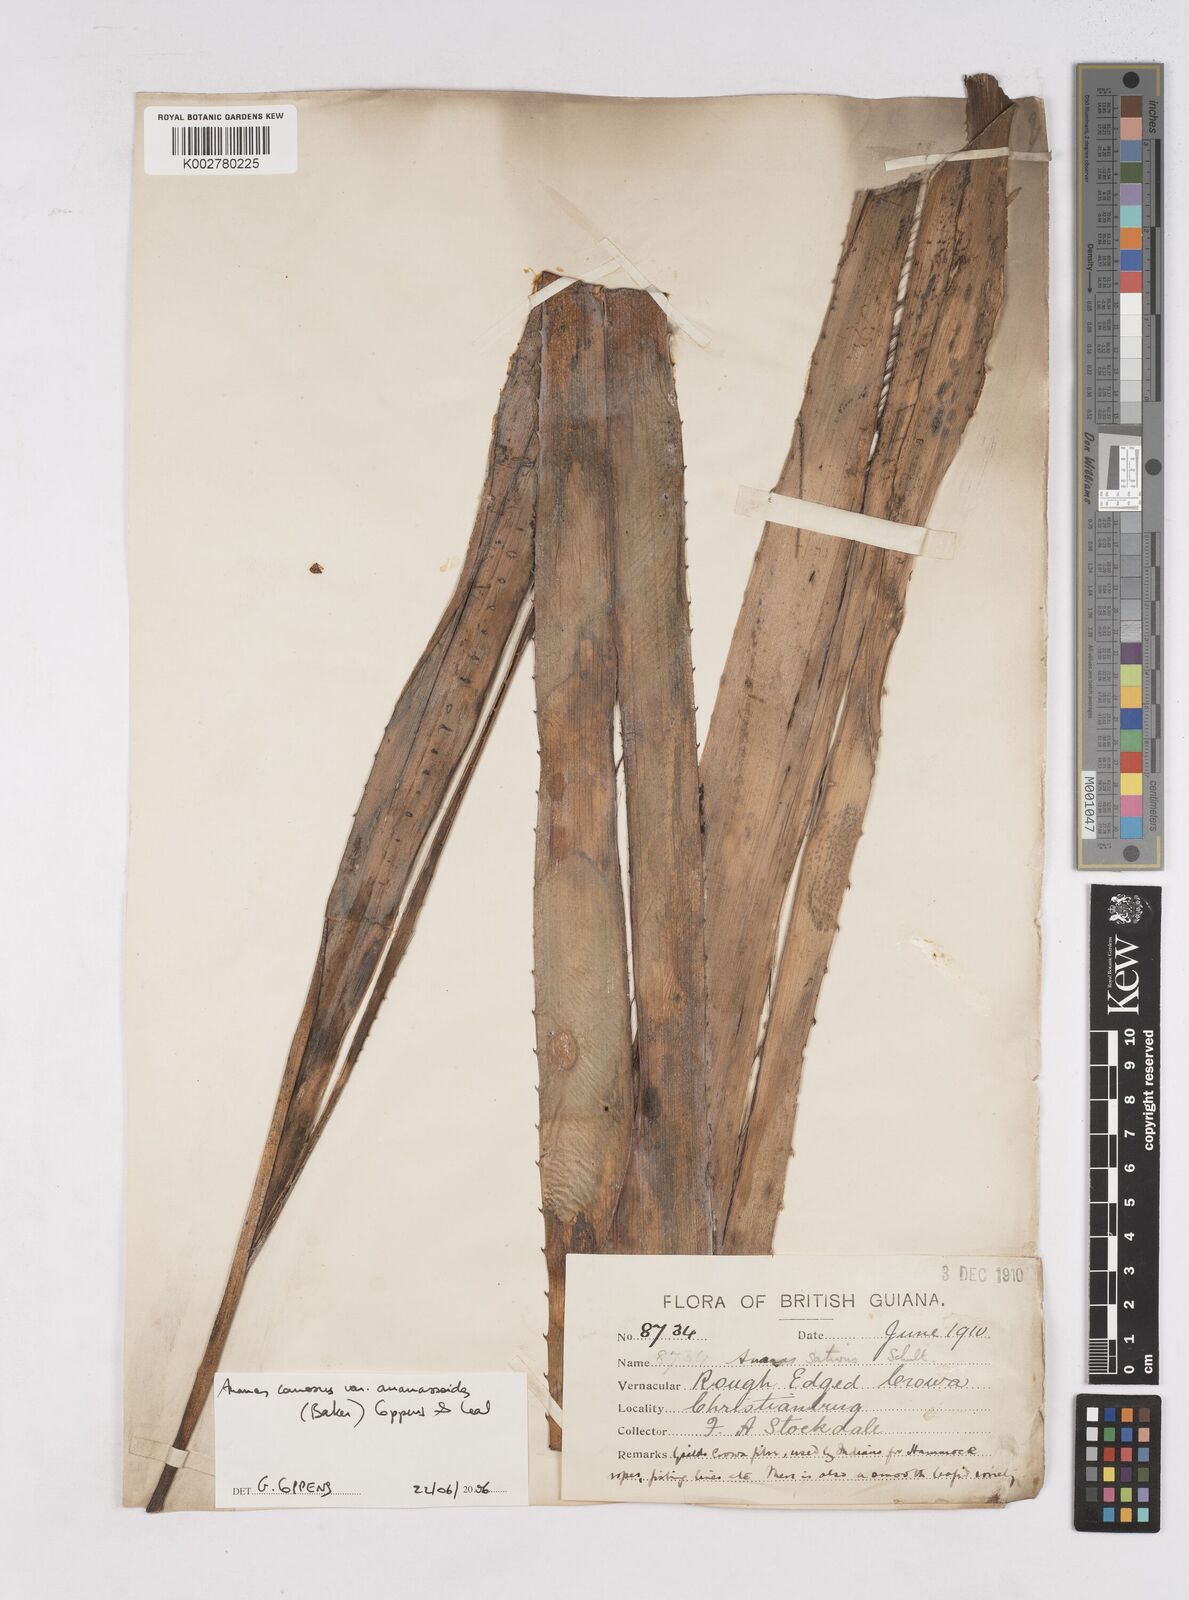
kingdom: Plantae
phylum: Tracheophyta
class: Liliopsida
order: Poales
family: Bromeliaceae
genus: Ananas
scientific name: Ananas comosus
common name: Pineapple
